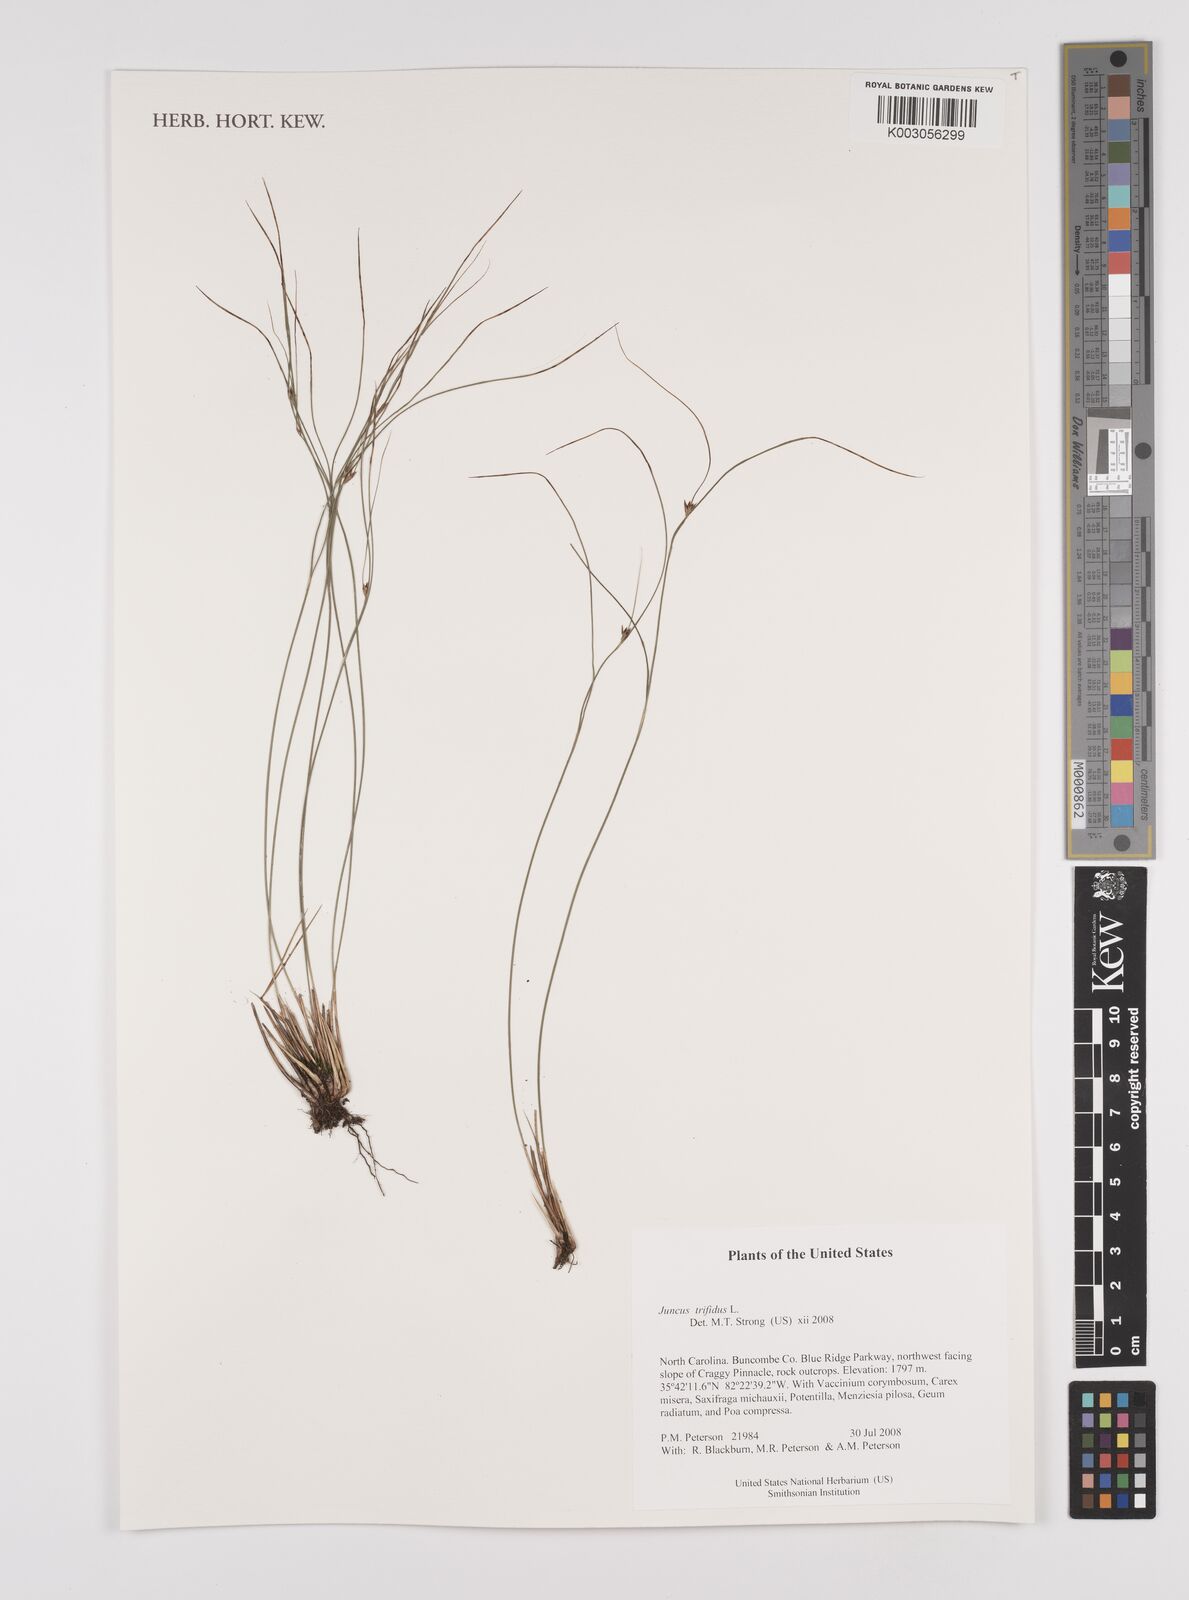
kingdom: Plantae
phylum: Tracheophyta
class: Liliopsida
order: Poales
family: Juncaceae
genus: Oreojuncus
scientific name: Oreojuncus trifidus
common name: Highland rush
